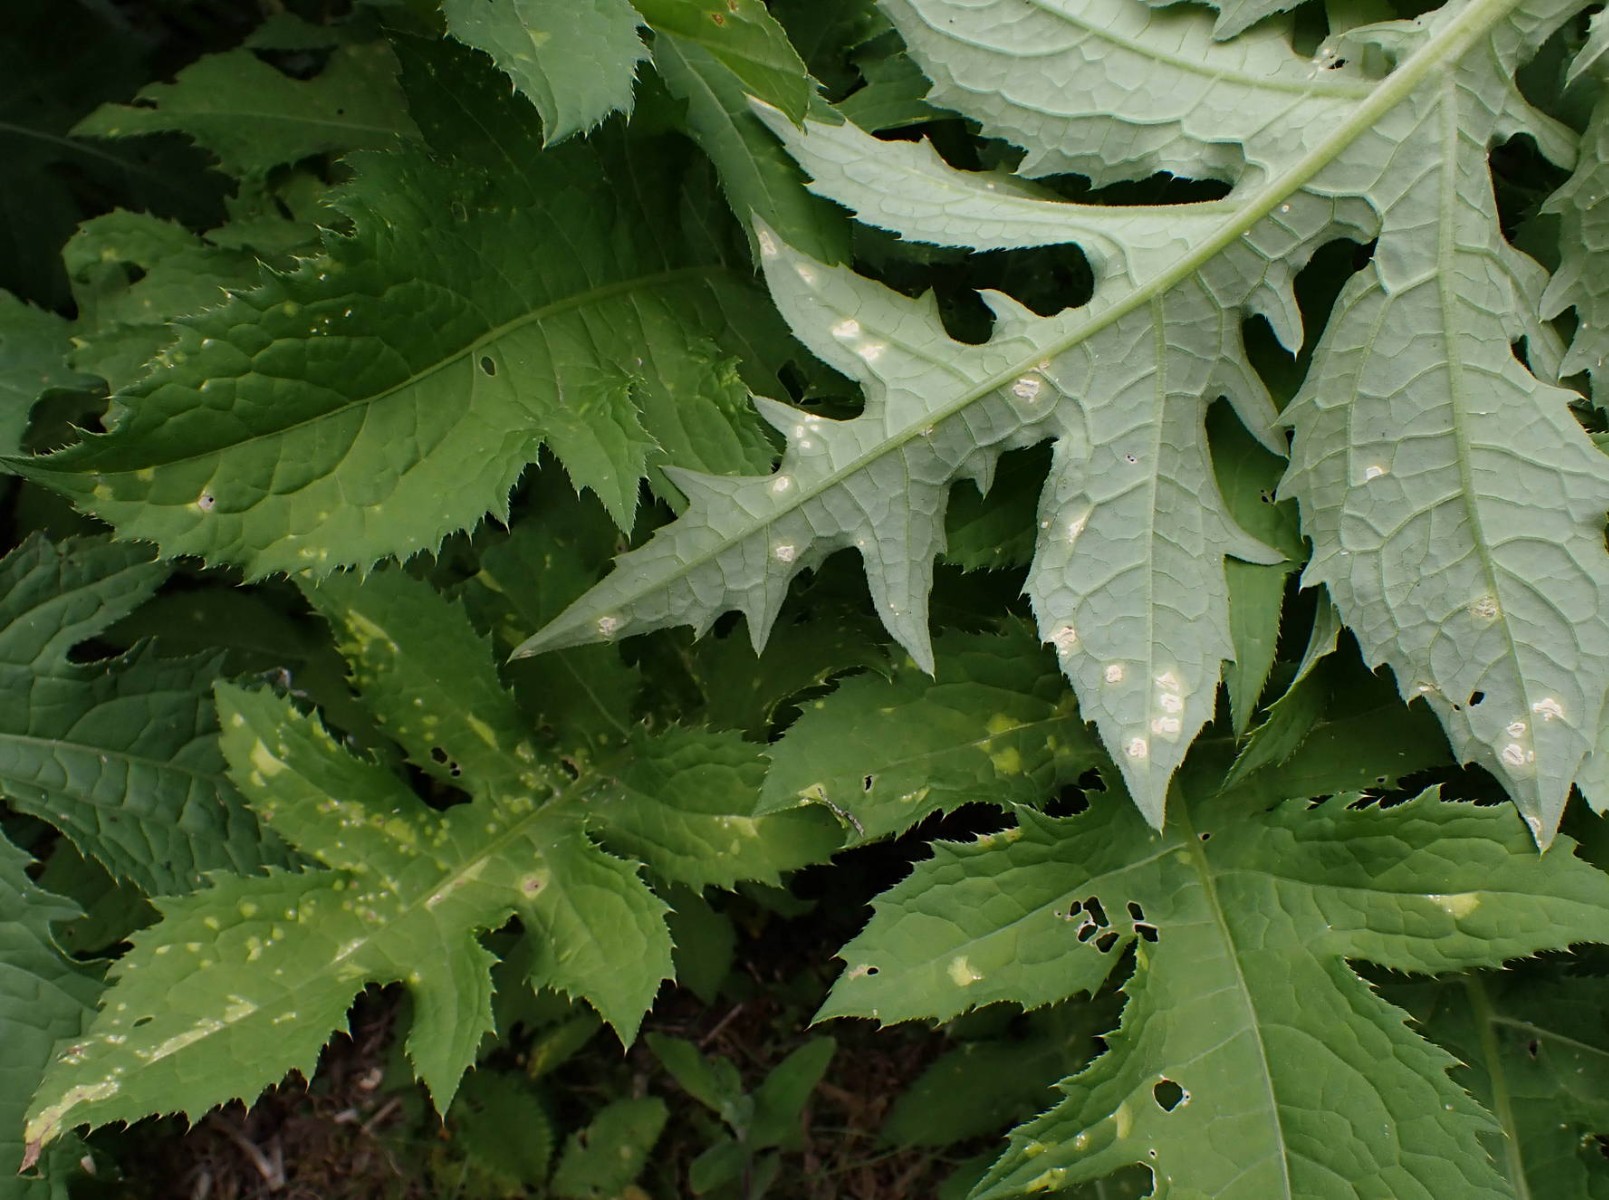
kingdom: Chromista
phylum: Oomycota
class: Peronosporea
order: Albuginales
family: Albuginaceae
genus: Pustula
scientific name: Pustula tragopogonis
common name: Sunflower white rust
